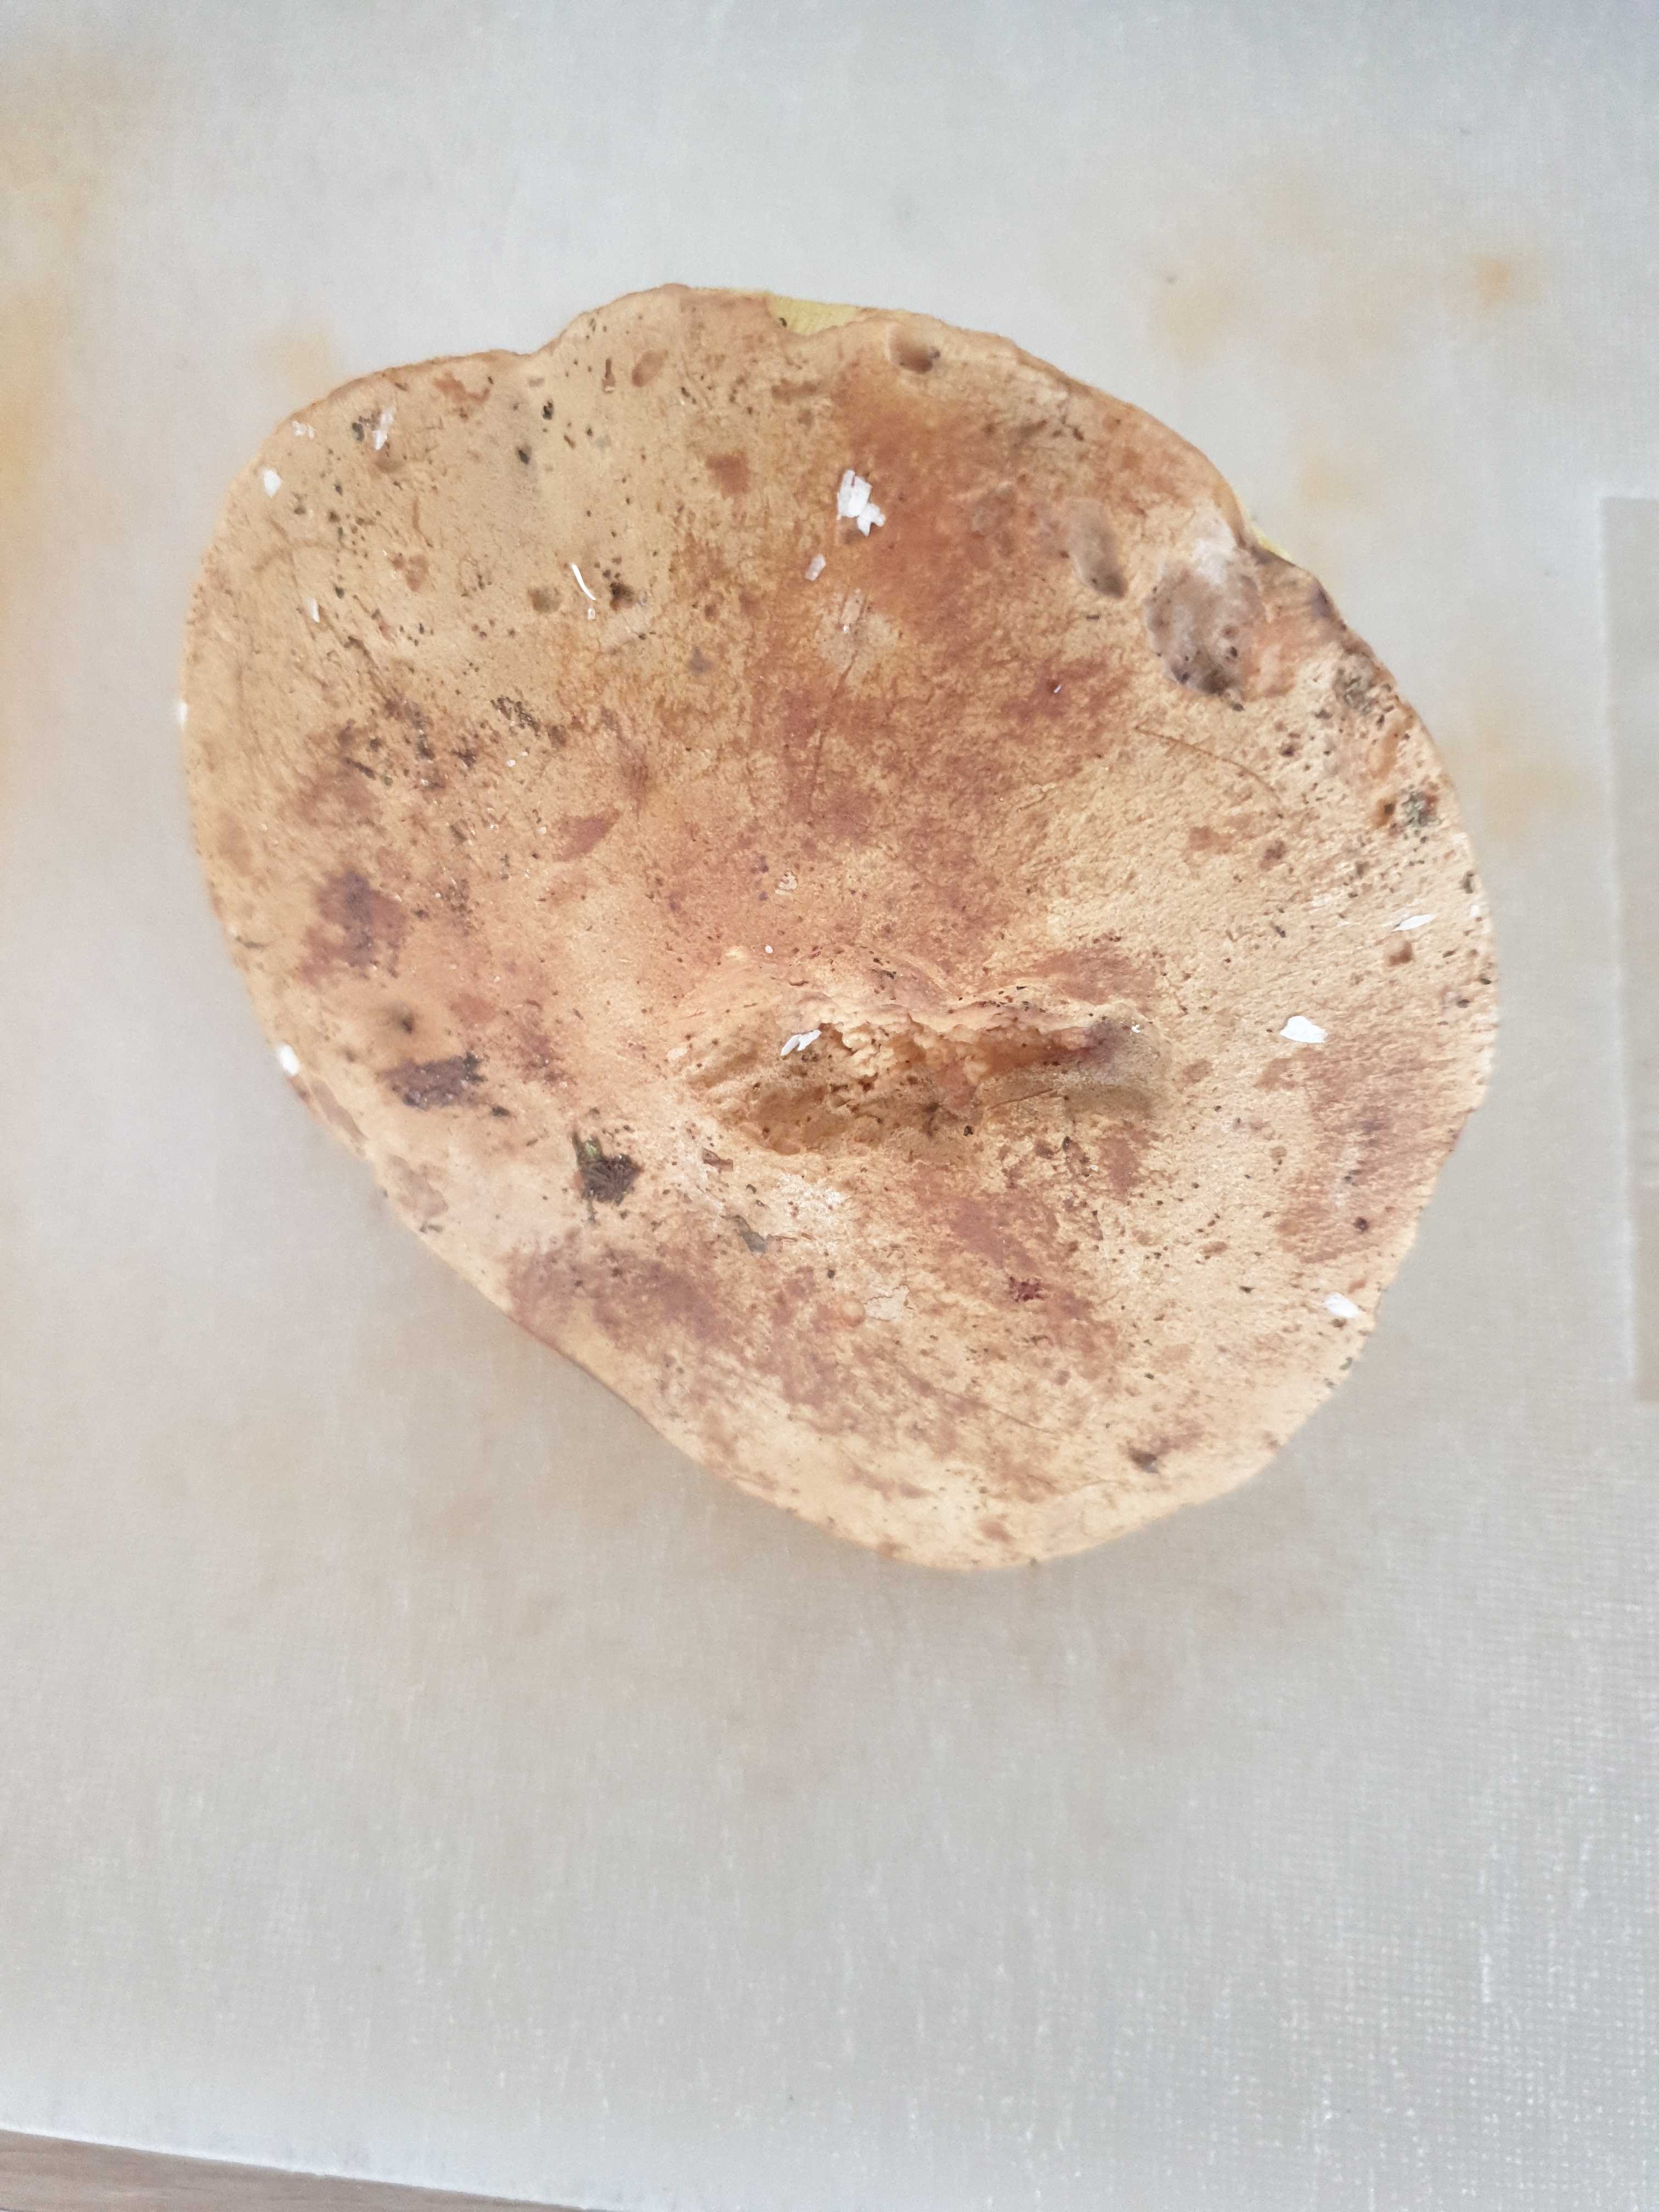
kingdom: Fungi
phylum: Basidiomycota
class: Agaricomycetes
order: Boletales
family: Boletaceae
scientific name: Boletaceae
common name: rørhatfamilien
